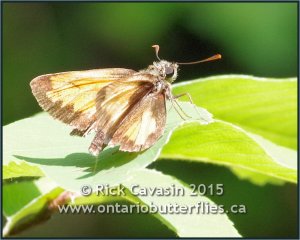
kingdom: Animalia
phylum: Arthropoda
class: Insecta
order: Lepidoptera
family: Hesperiidae
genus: Lon
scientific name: Lon hobomok
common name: Hobomok Skipper
